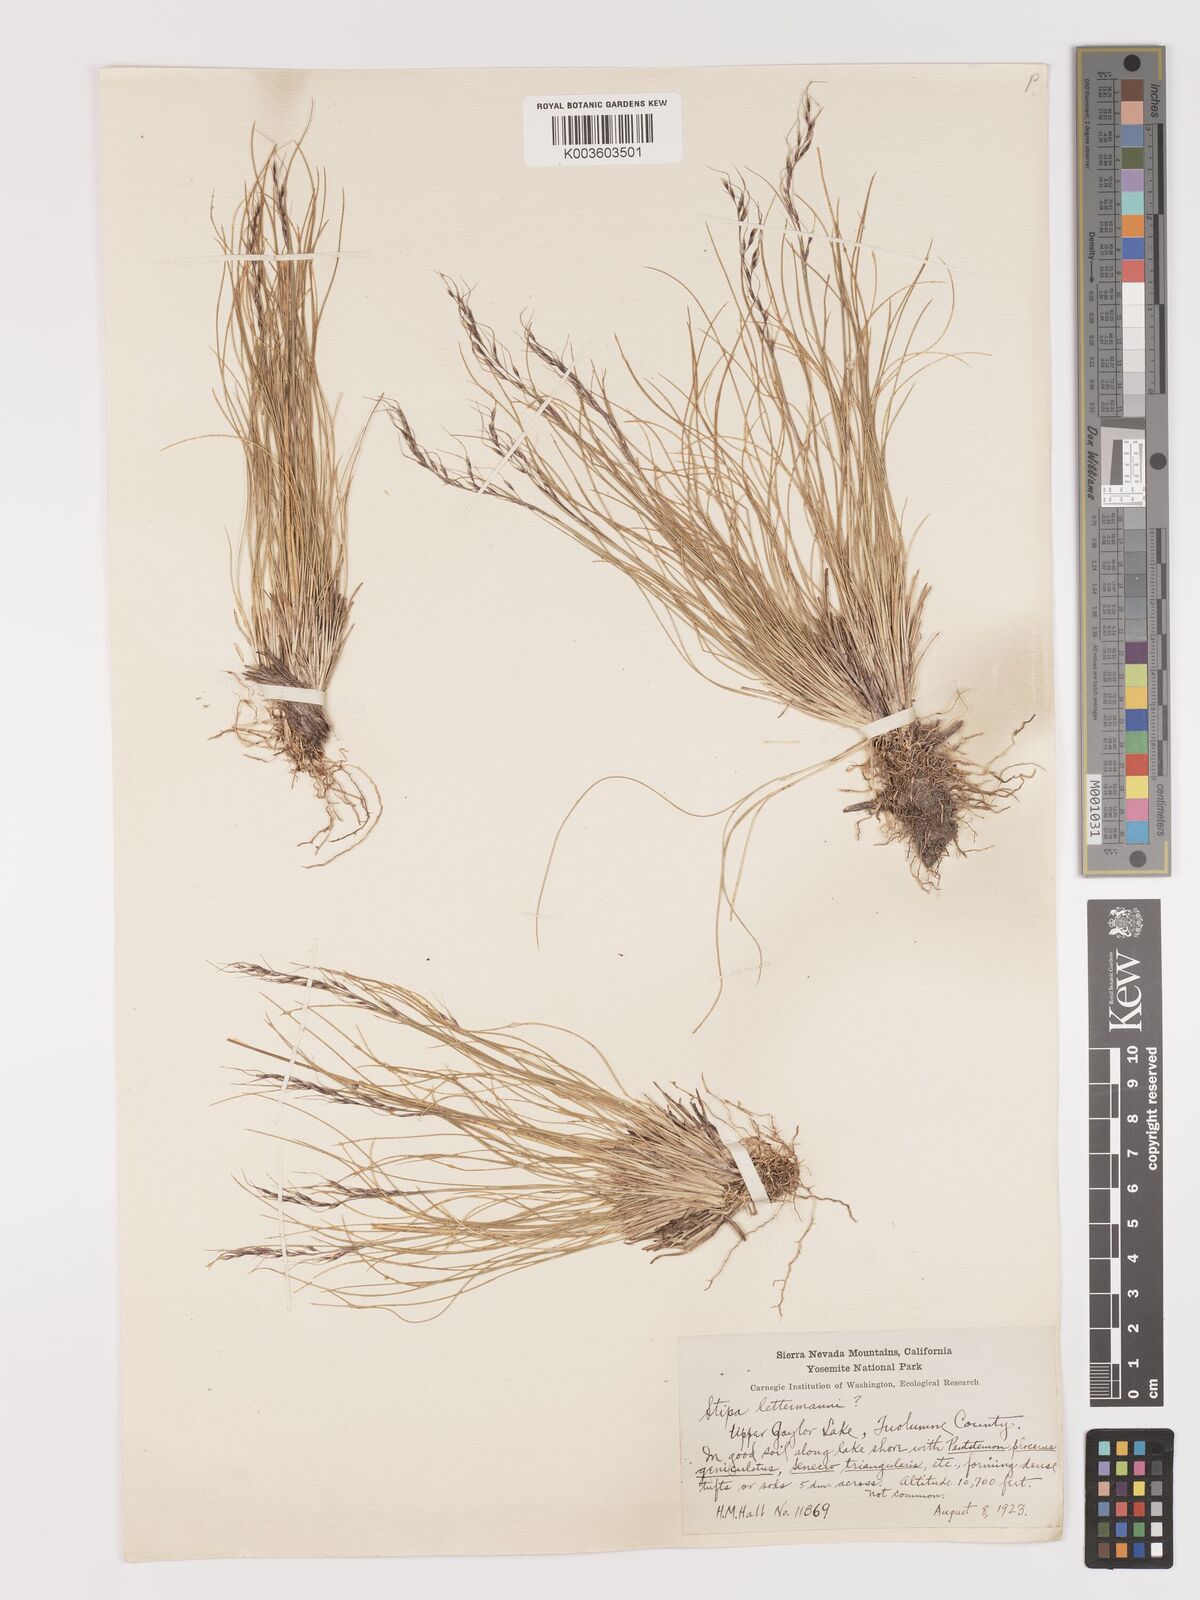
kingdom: Plantae
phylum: Tracheophyta
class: Liliopsida
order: Poales
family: Poaceae
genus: Eriocoma
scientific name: Eriocoma lettermanii
